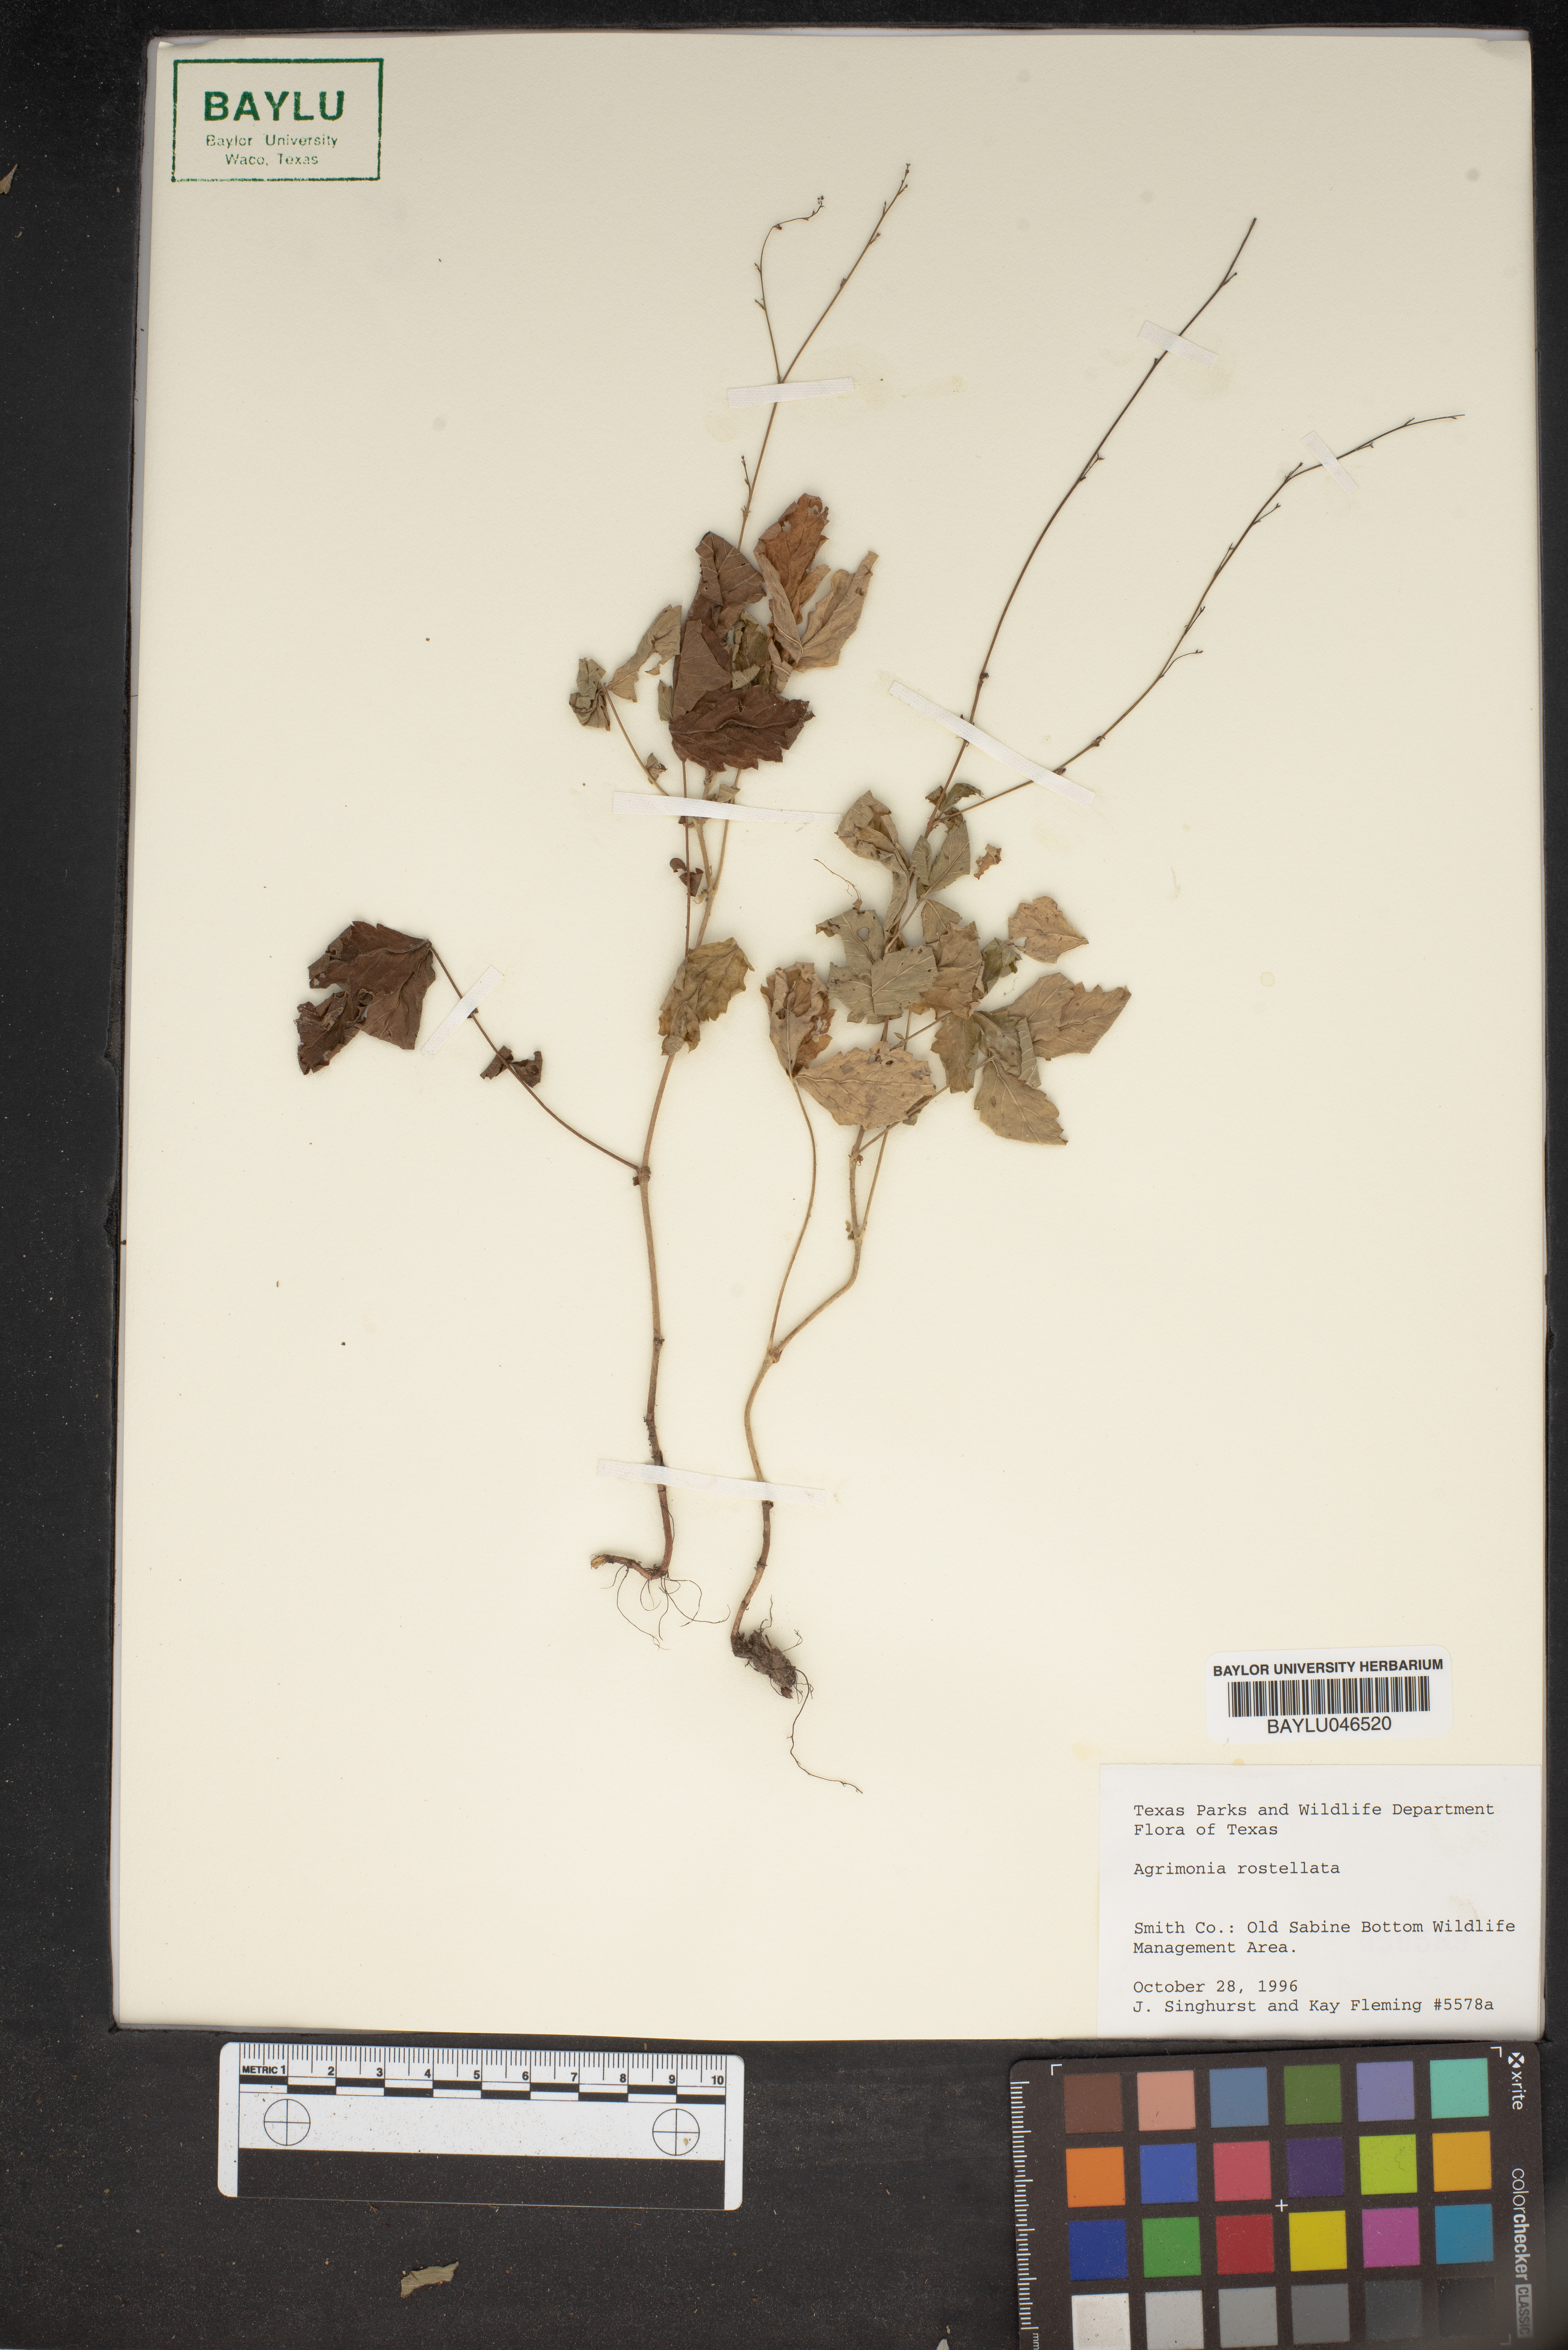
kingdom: Plantae
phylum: Tracheophyta
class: Magnoliopsida
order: Rosales
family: Rosaceae
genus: Agrimonia
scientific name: Agrimonia rostellata
